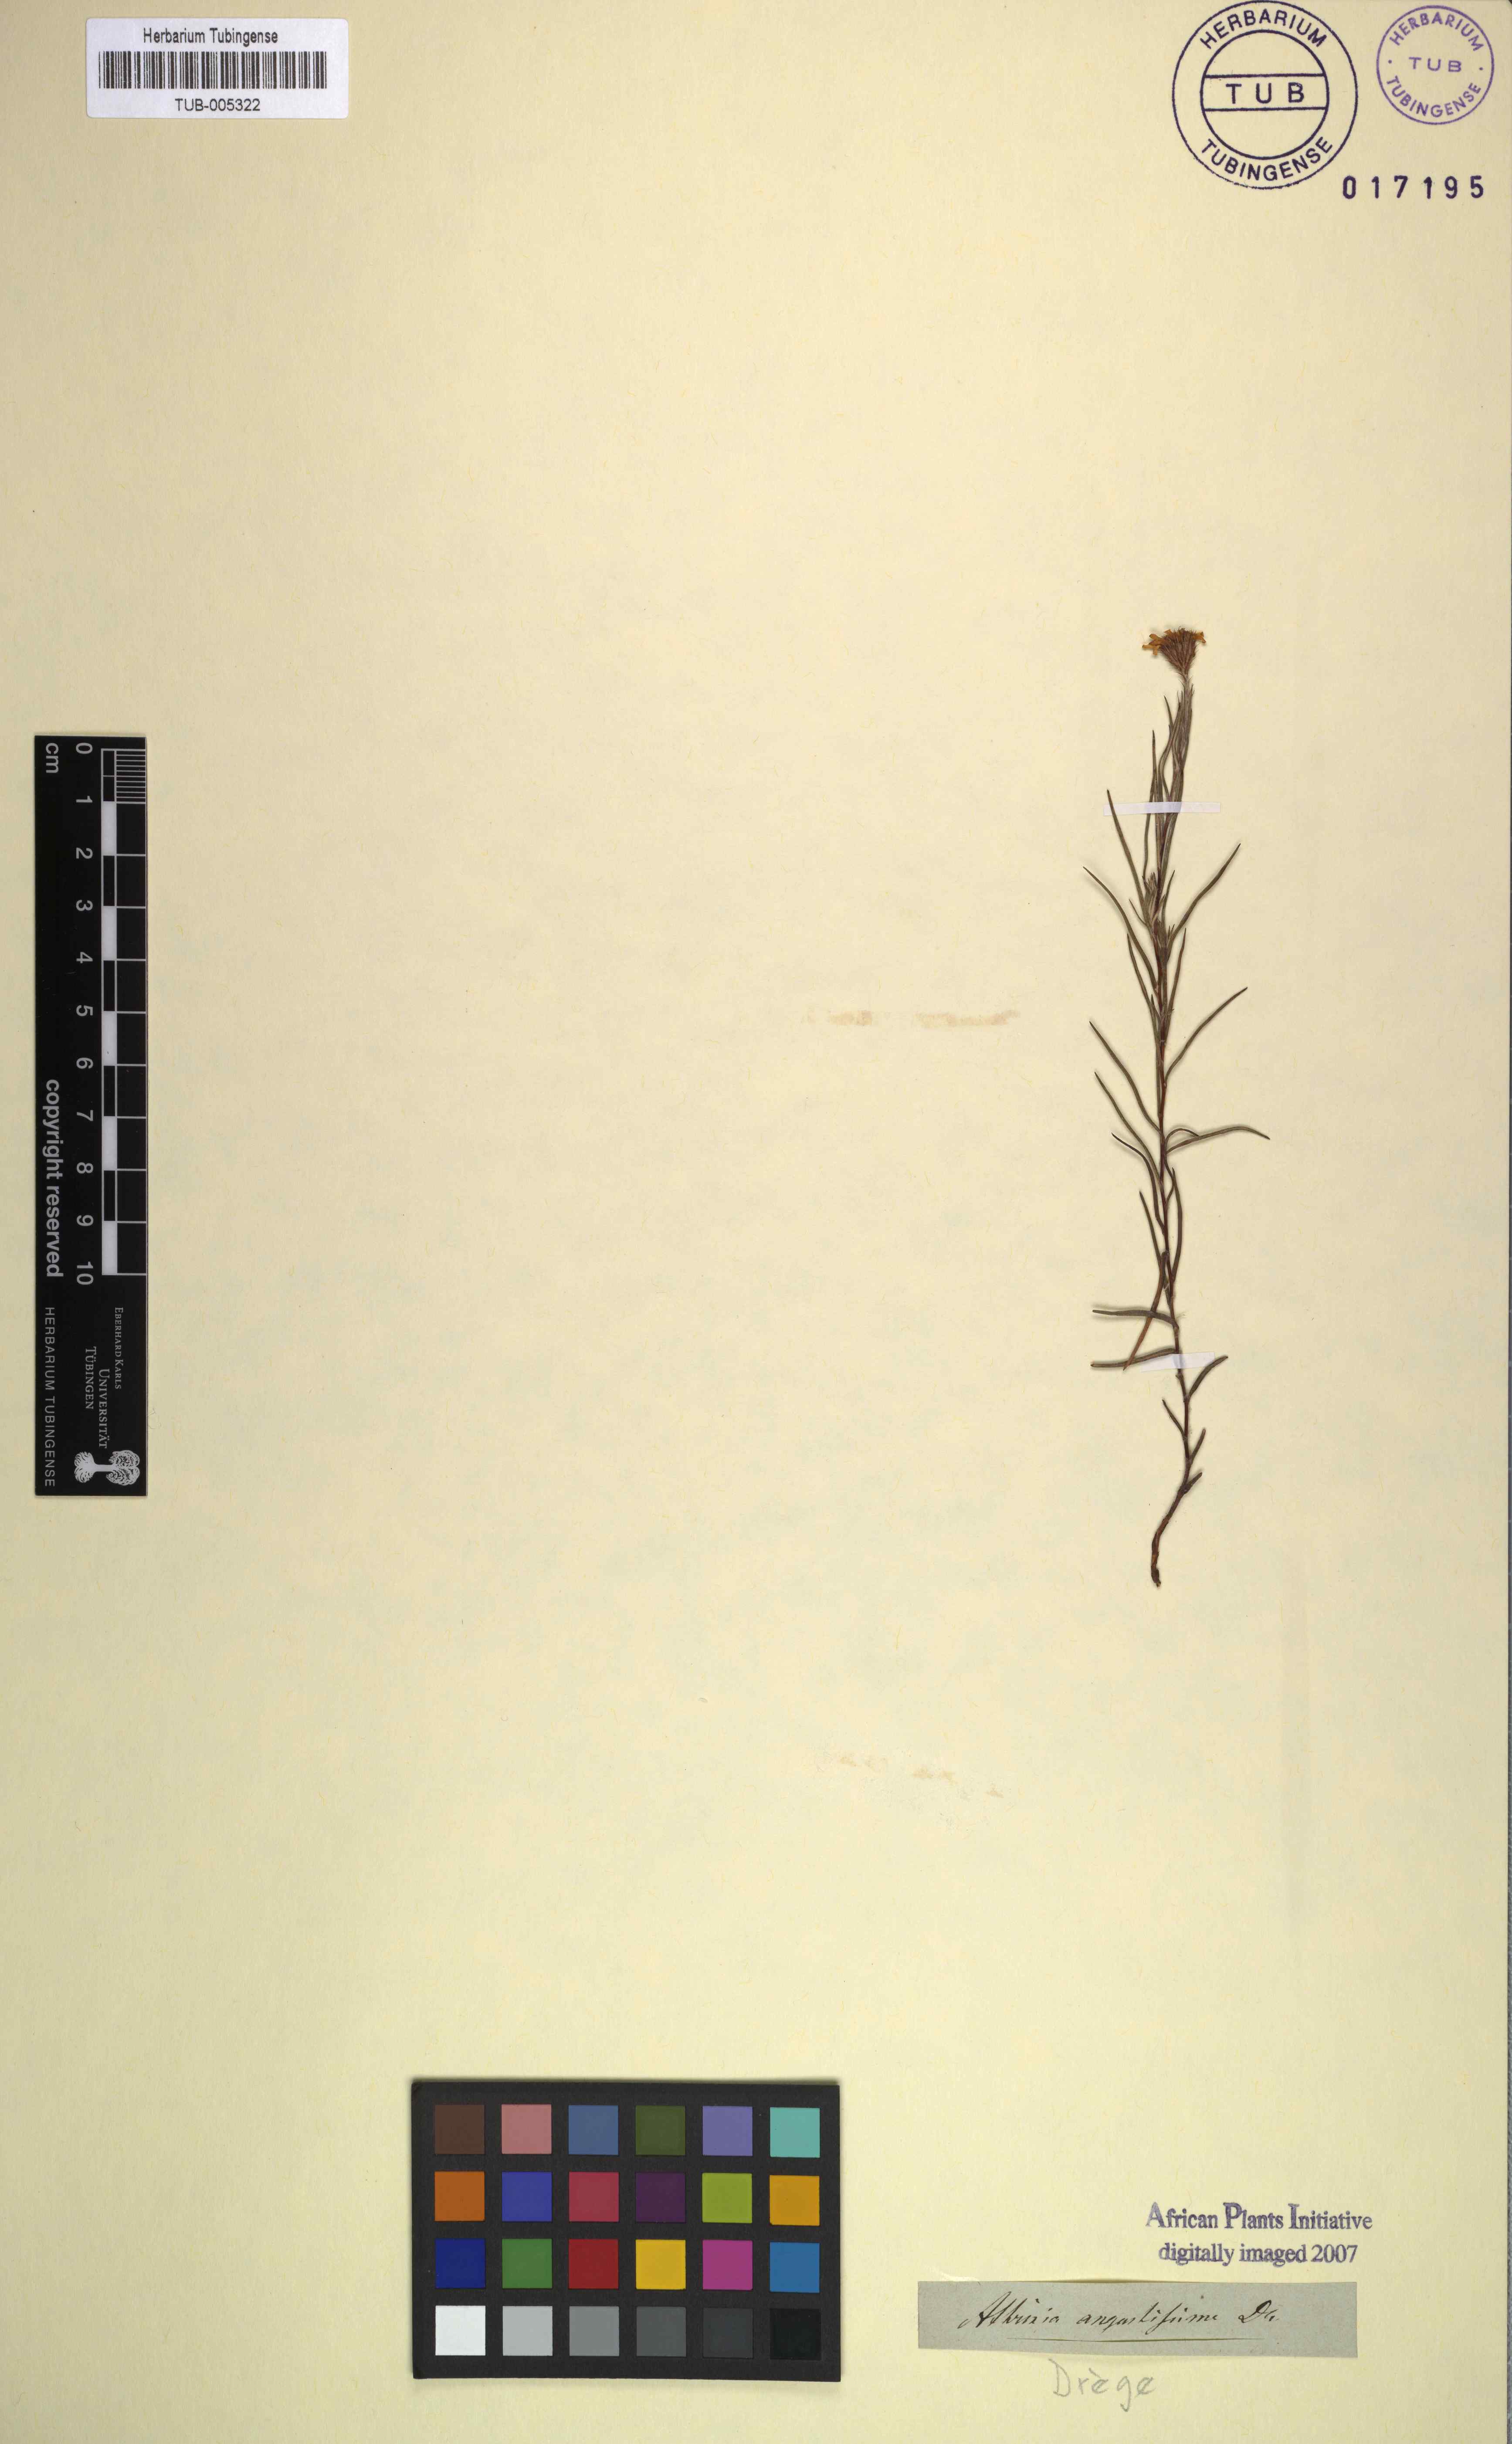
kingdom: Plantae
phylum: Tracheophyta
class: Magnoliopsida
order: Asterales
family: Asteraceae
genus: Athrixia
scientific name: Athrixia angustissima
